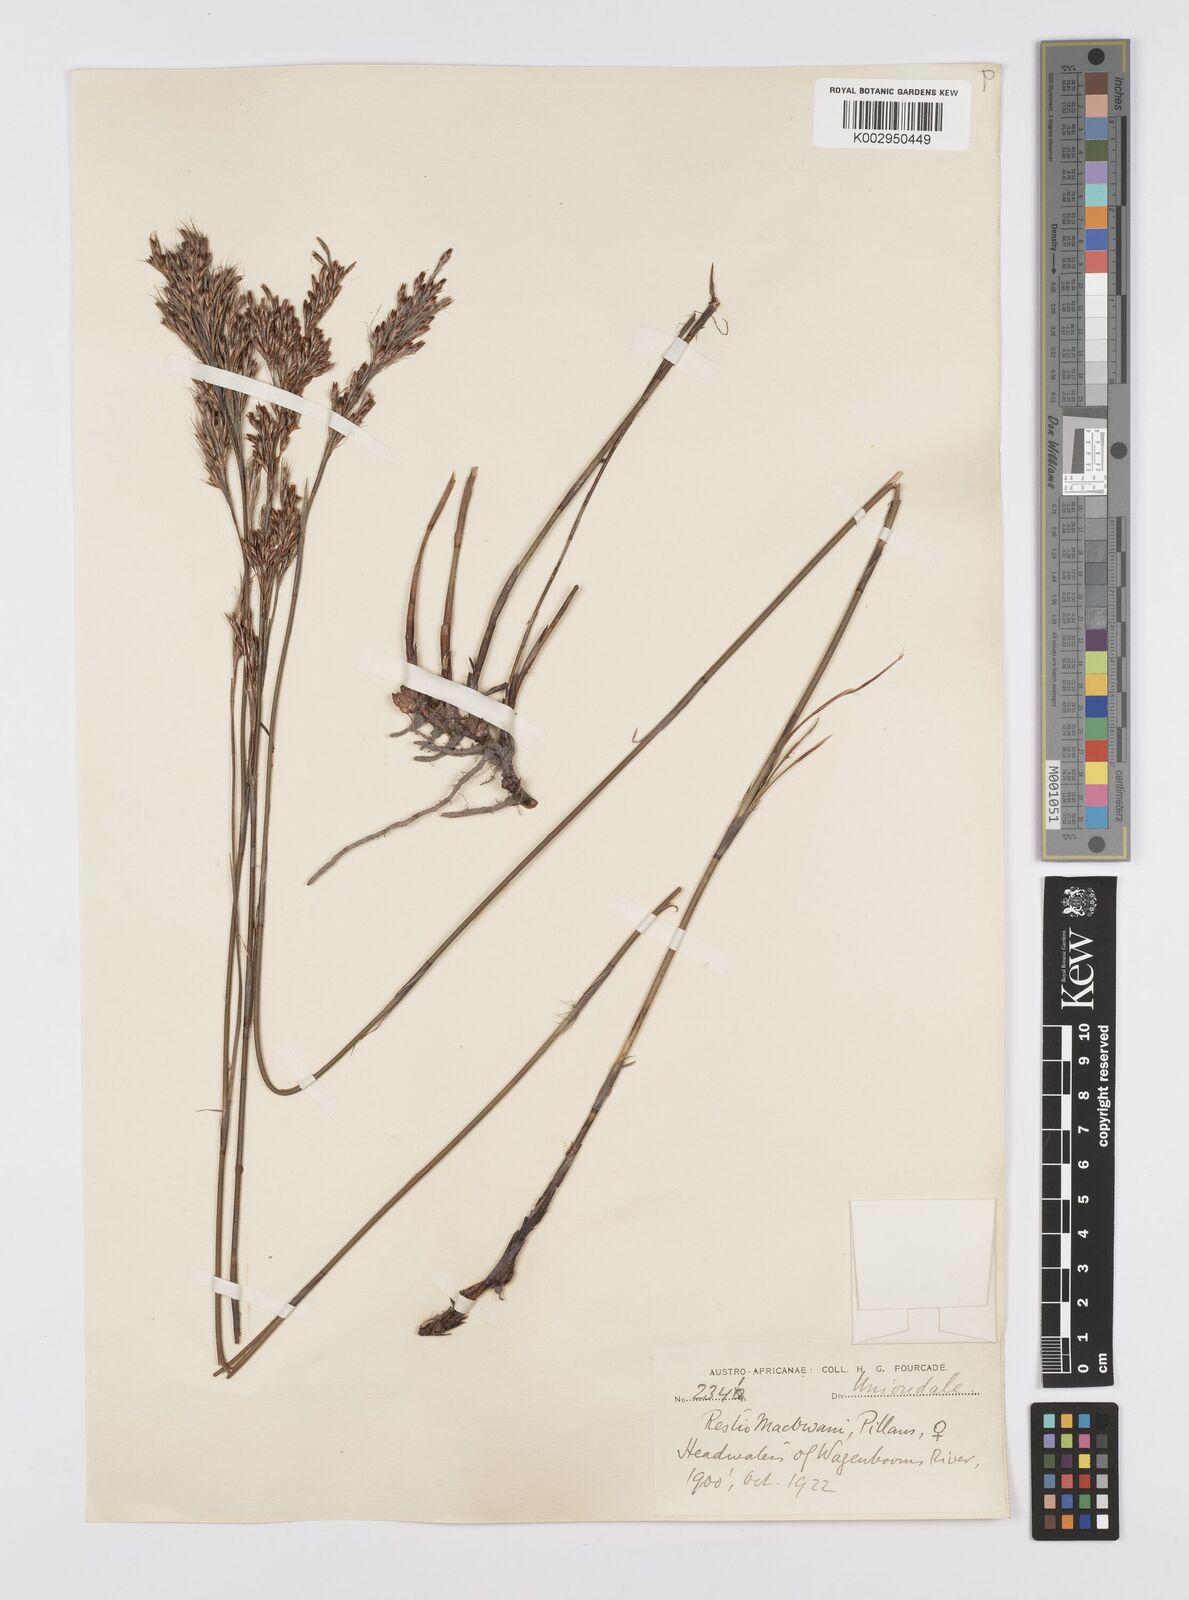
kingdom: Plantae
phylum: Tracheophyta
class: Liliopsida
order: Poales
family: Restionaceae
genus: Rhodocoma
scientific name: Rhodocoma fruticosa
